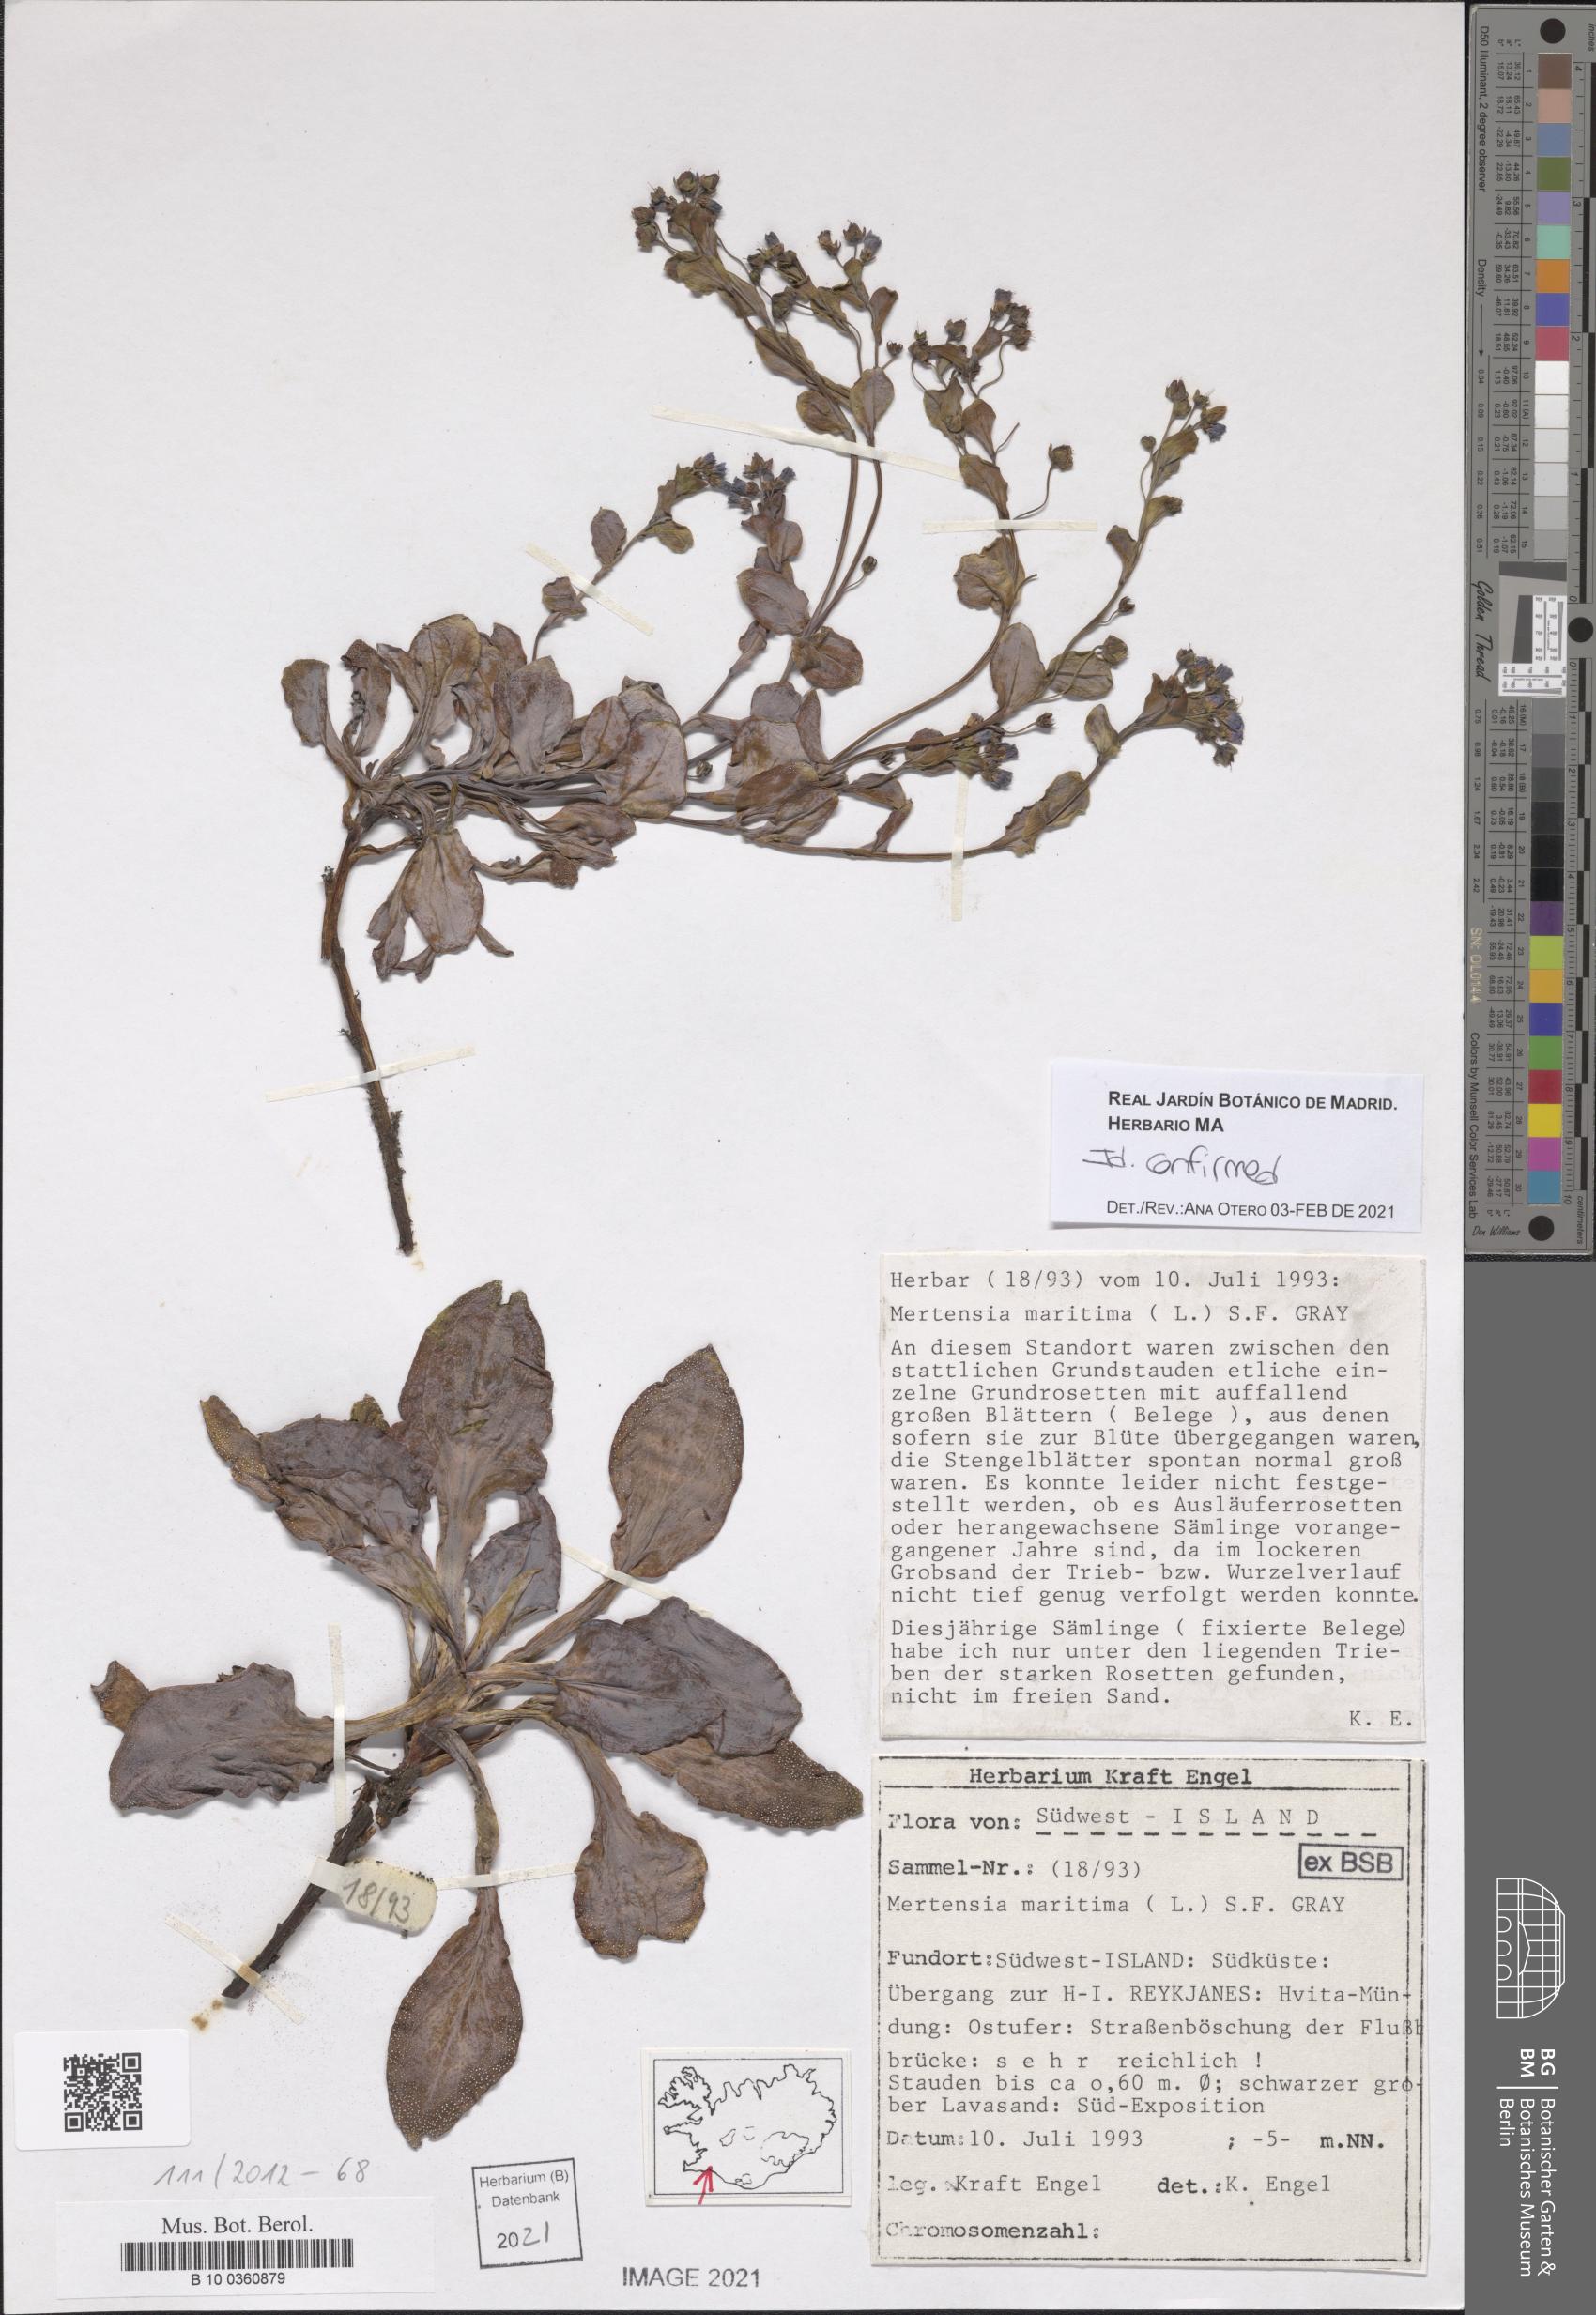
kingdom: Plantae
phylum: Tracheophyta
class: Magnoliopsida
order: Boraginales
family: Boraginaceae
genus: Mertensia
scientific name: Mertensia maritima
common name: Oysterplant
